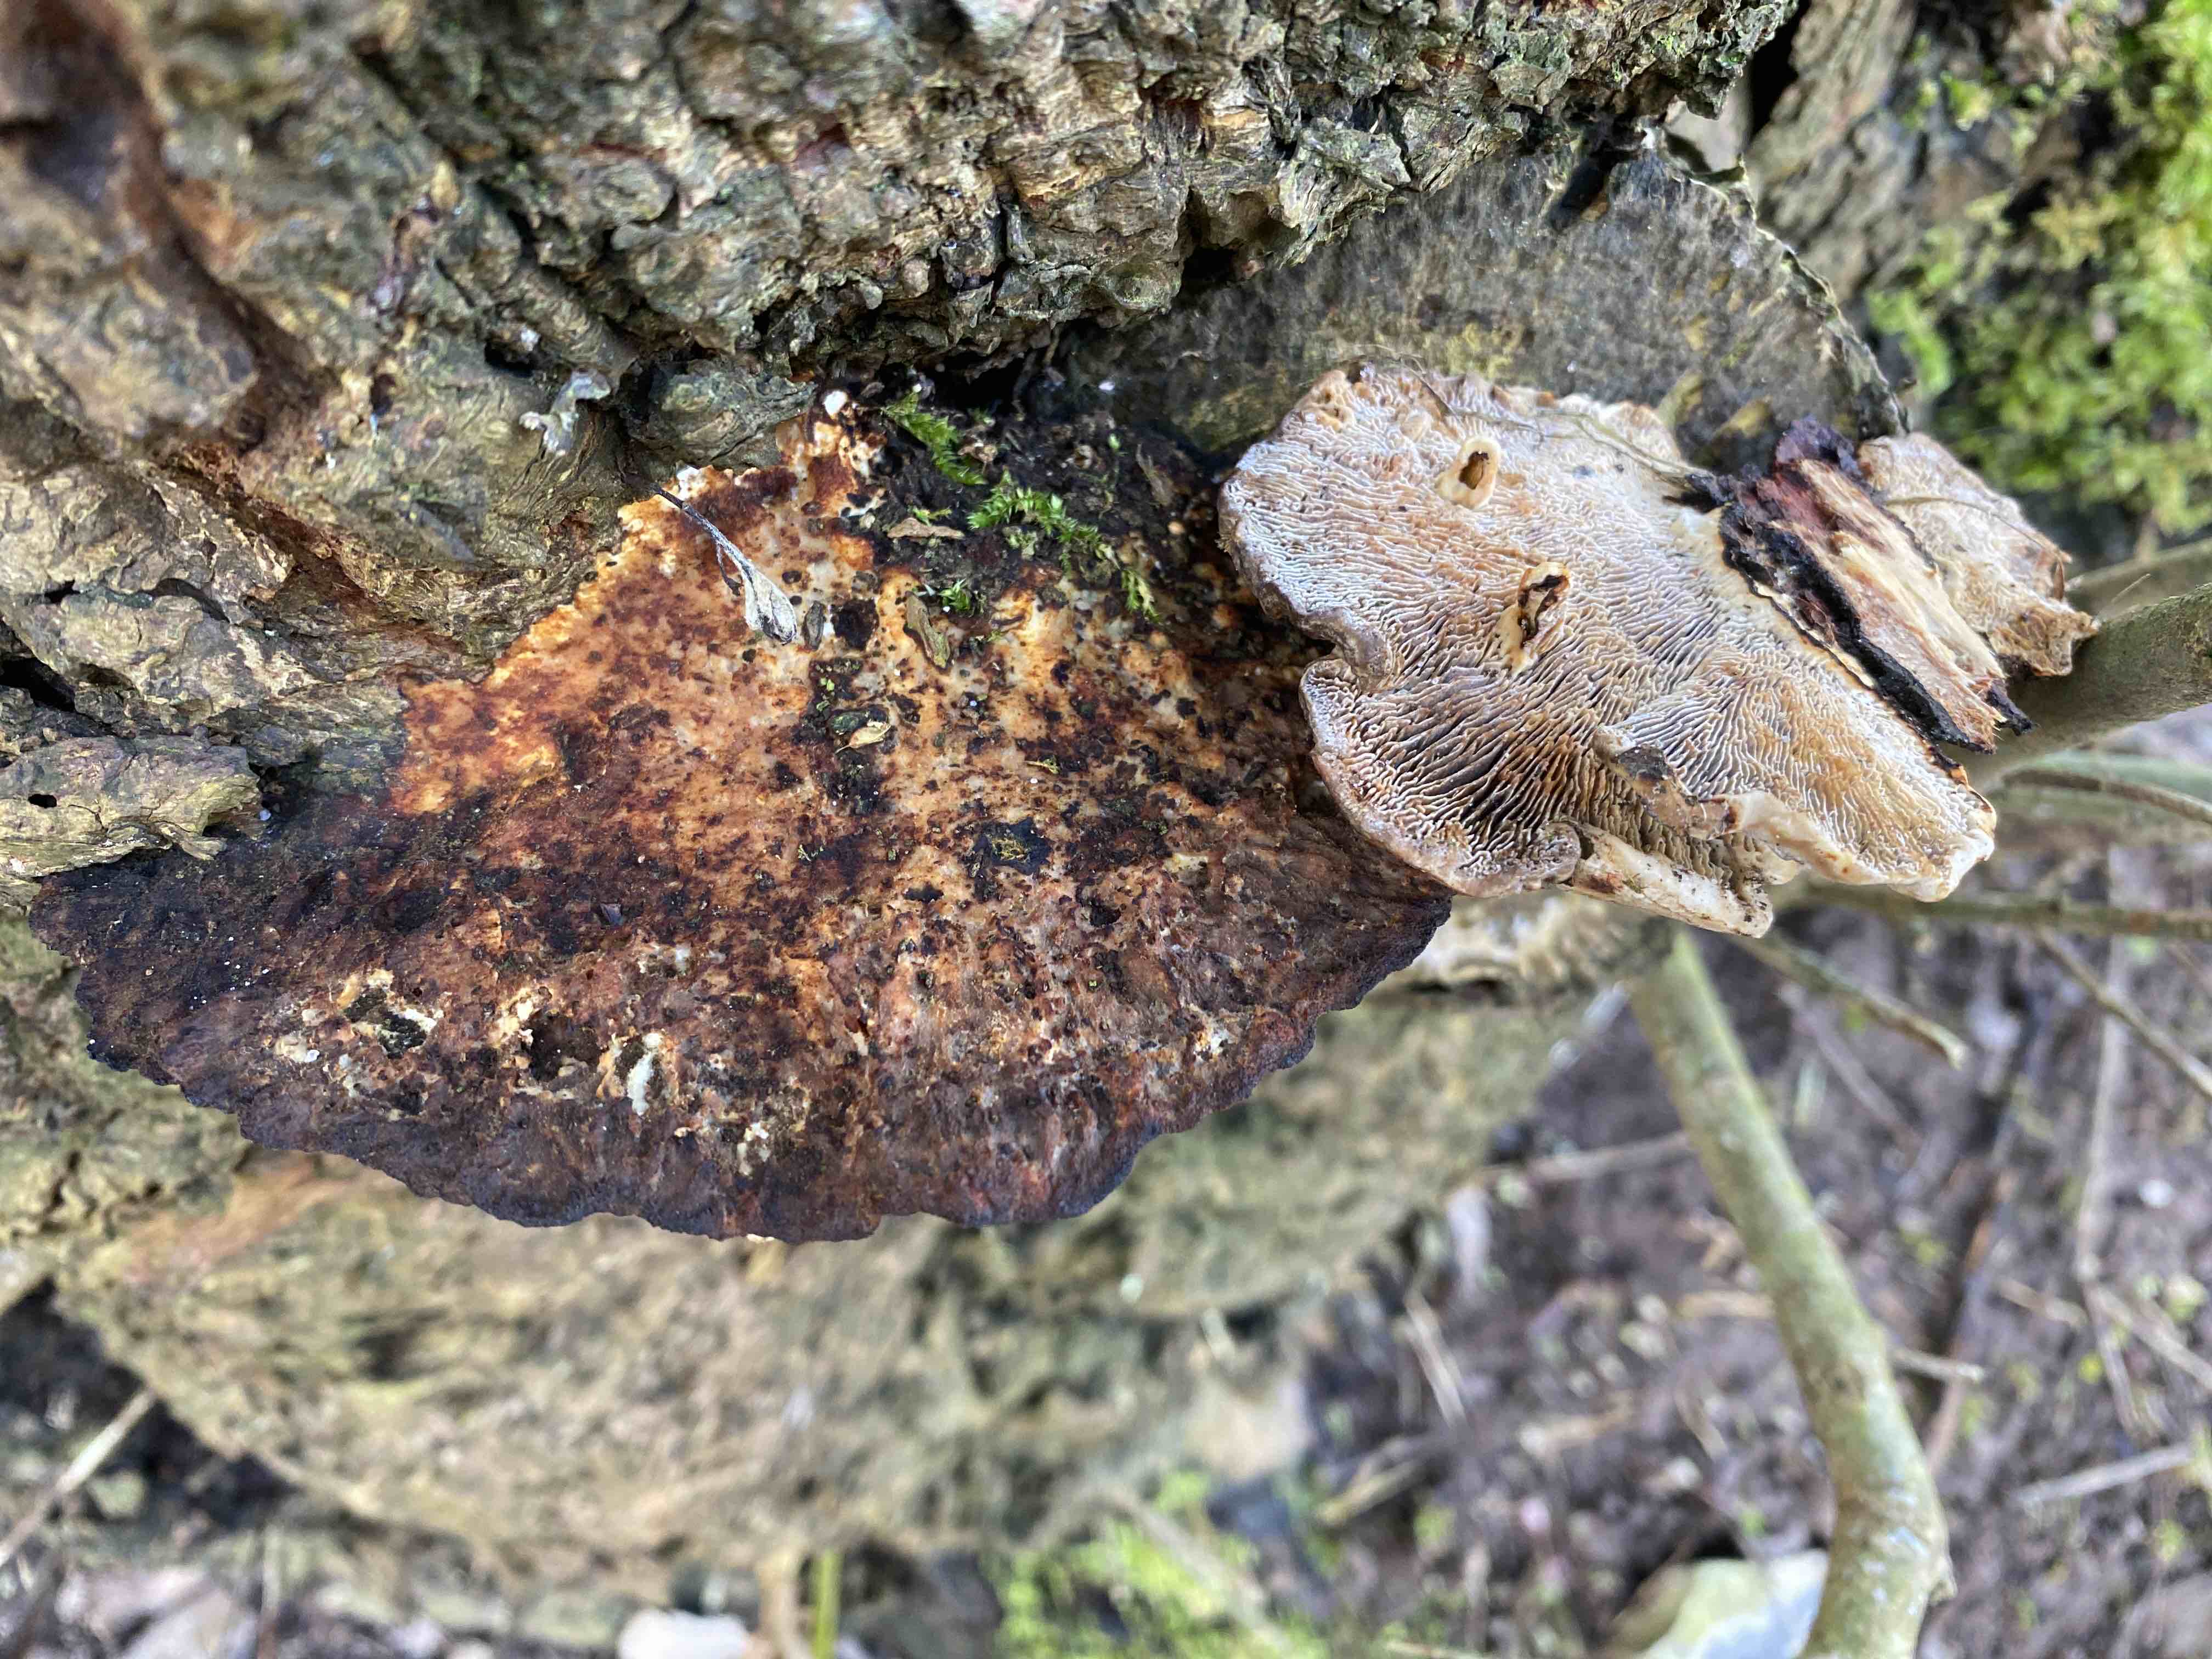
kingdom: Fungi
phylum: Basidiomycota
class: Agaricomycetes
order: Polyporales
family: Polyporaceae
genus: Daedaleopsis
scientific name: Daedaleopsis confragosa
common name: rødmende læderporesvamp
